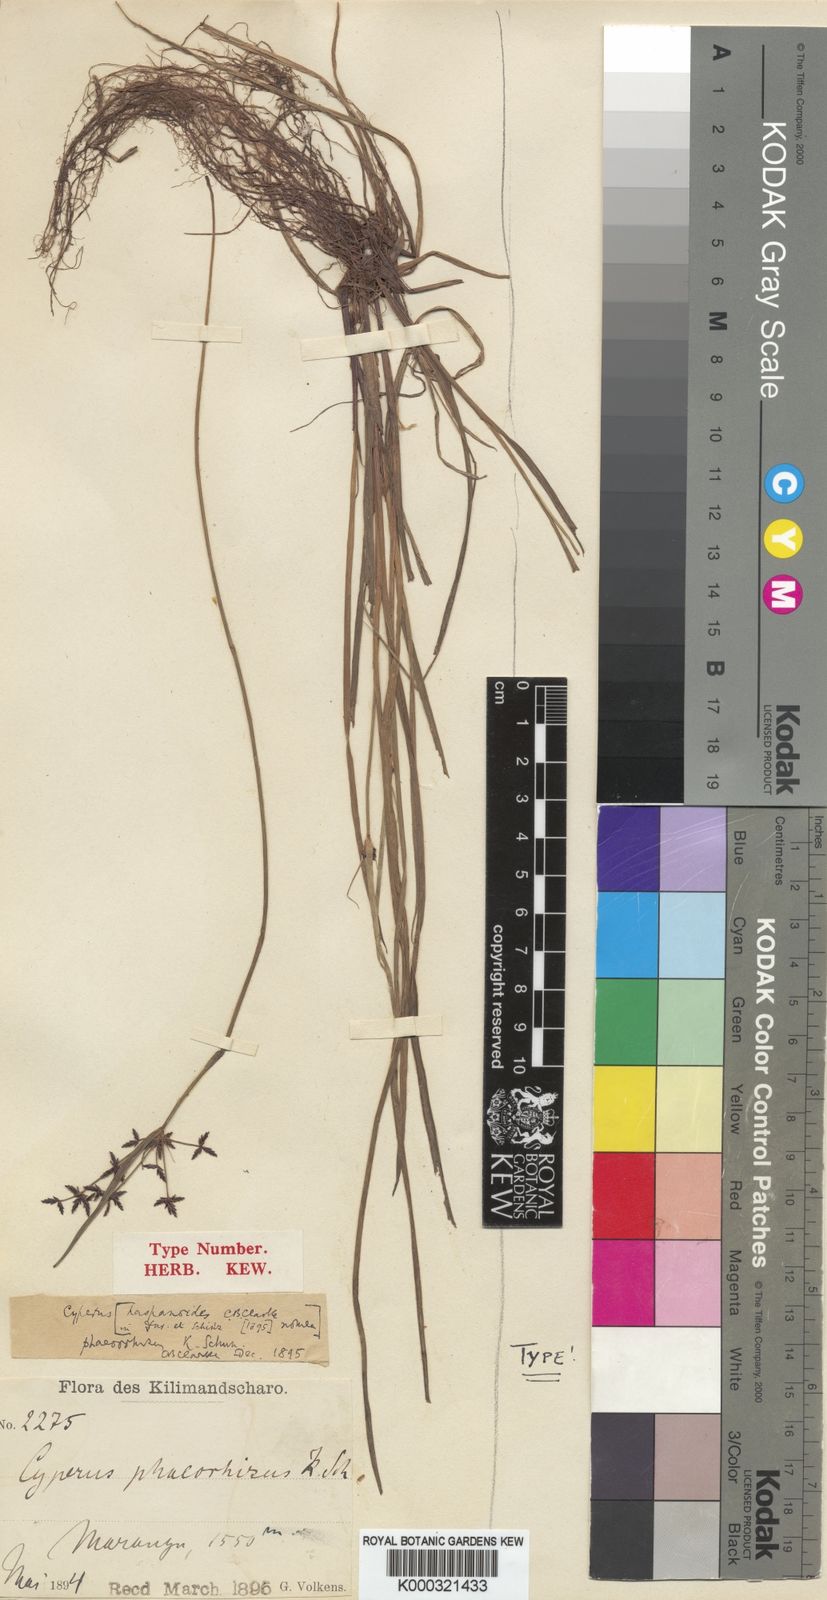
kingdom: Plantae
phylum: Tracheophyta
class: Liliopsida
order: Poales
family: Cyperaceae
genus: Cyperus
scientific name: Cyperus haspan
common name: Haspan flatsedge
